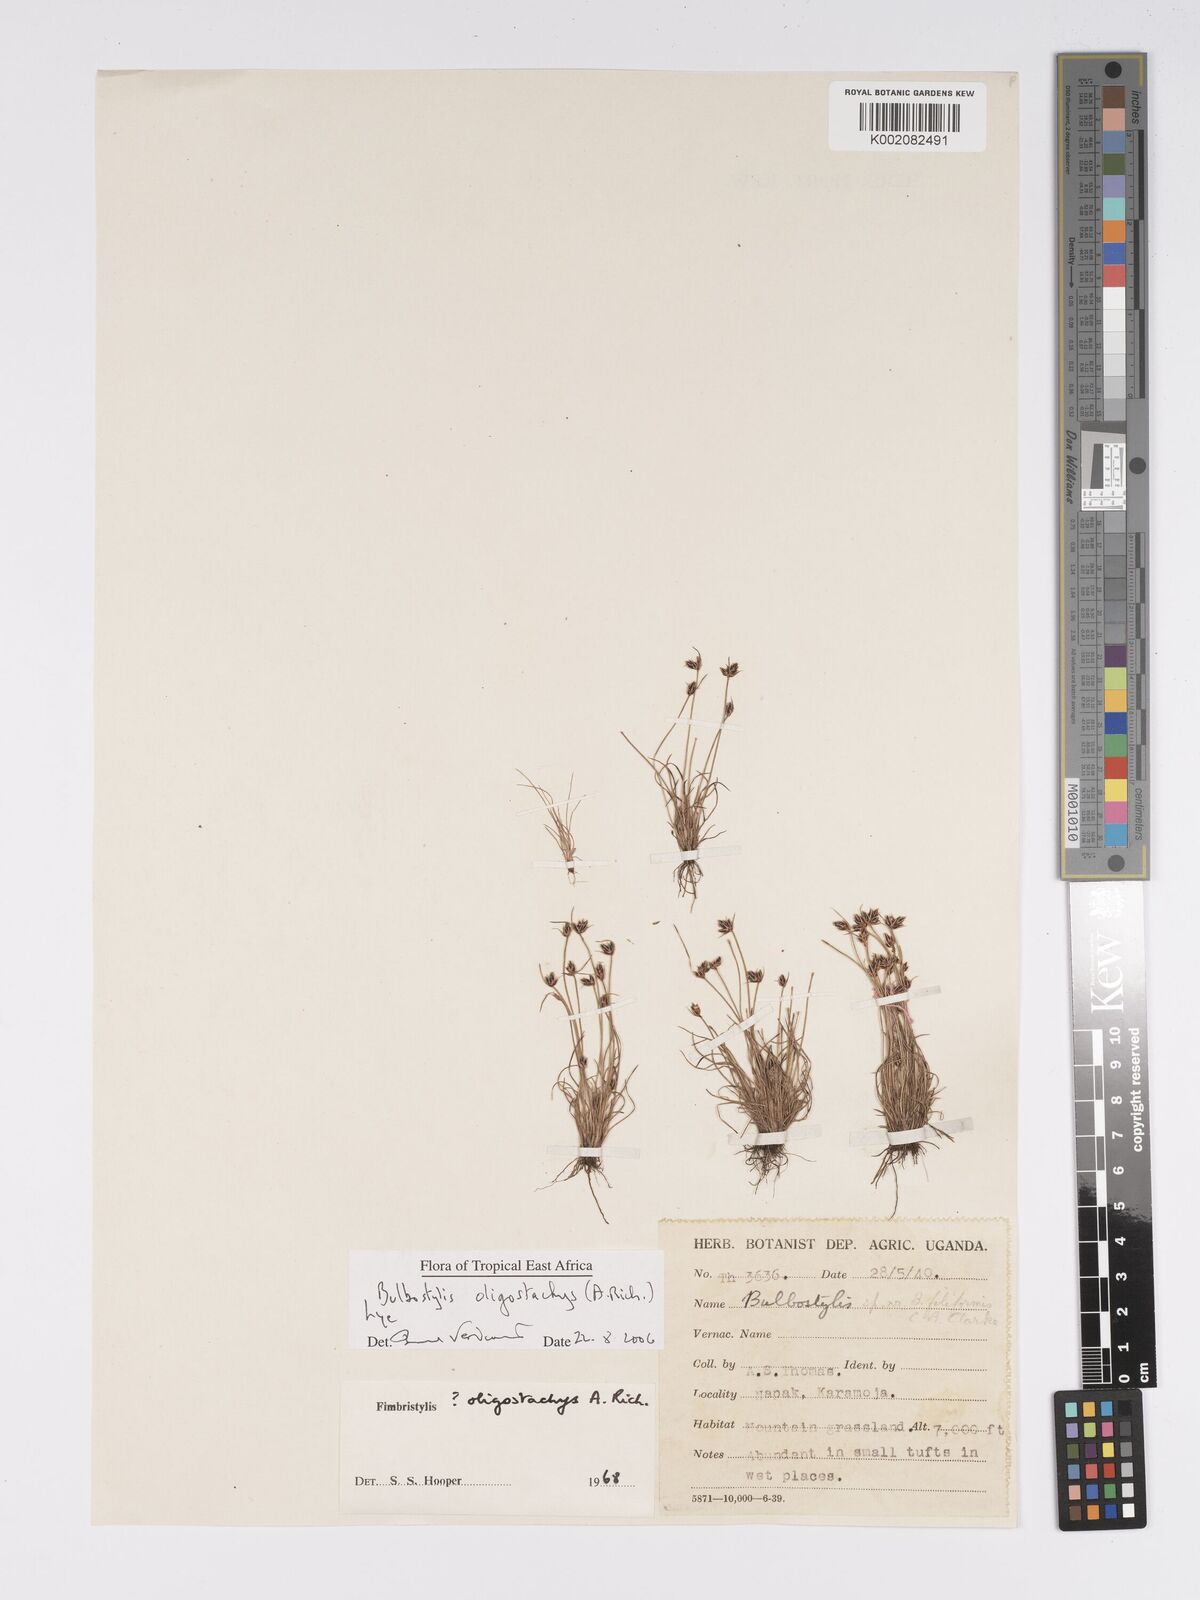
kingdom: Plantae
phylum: Tracheophyta
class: Liliopsida
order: Poales
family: Cyperaceae
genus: Bulbostylis
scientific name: Bulbostylis oligostachys
